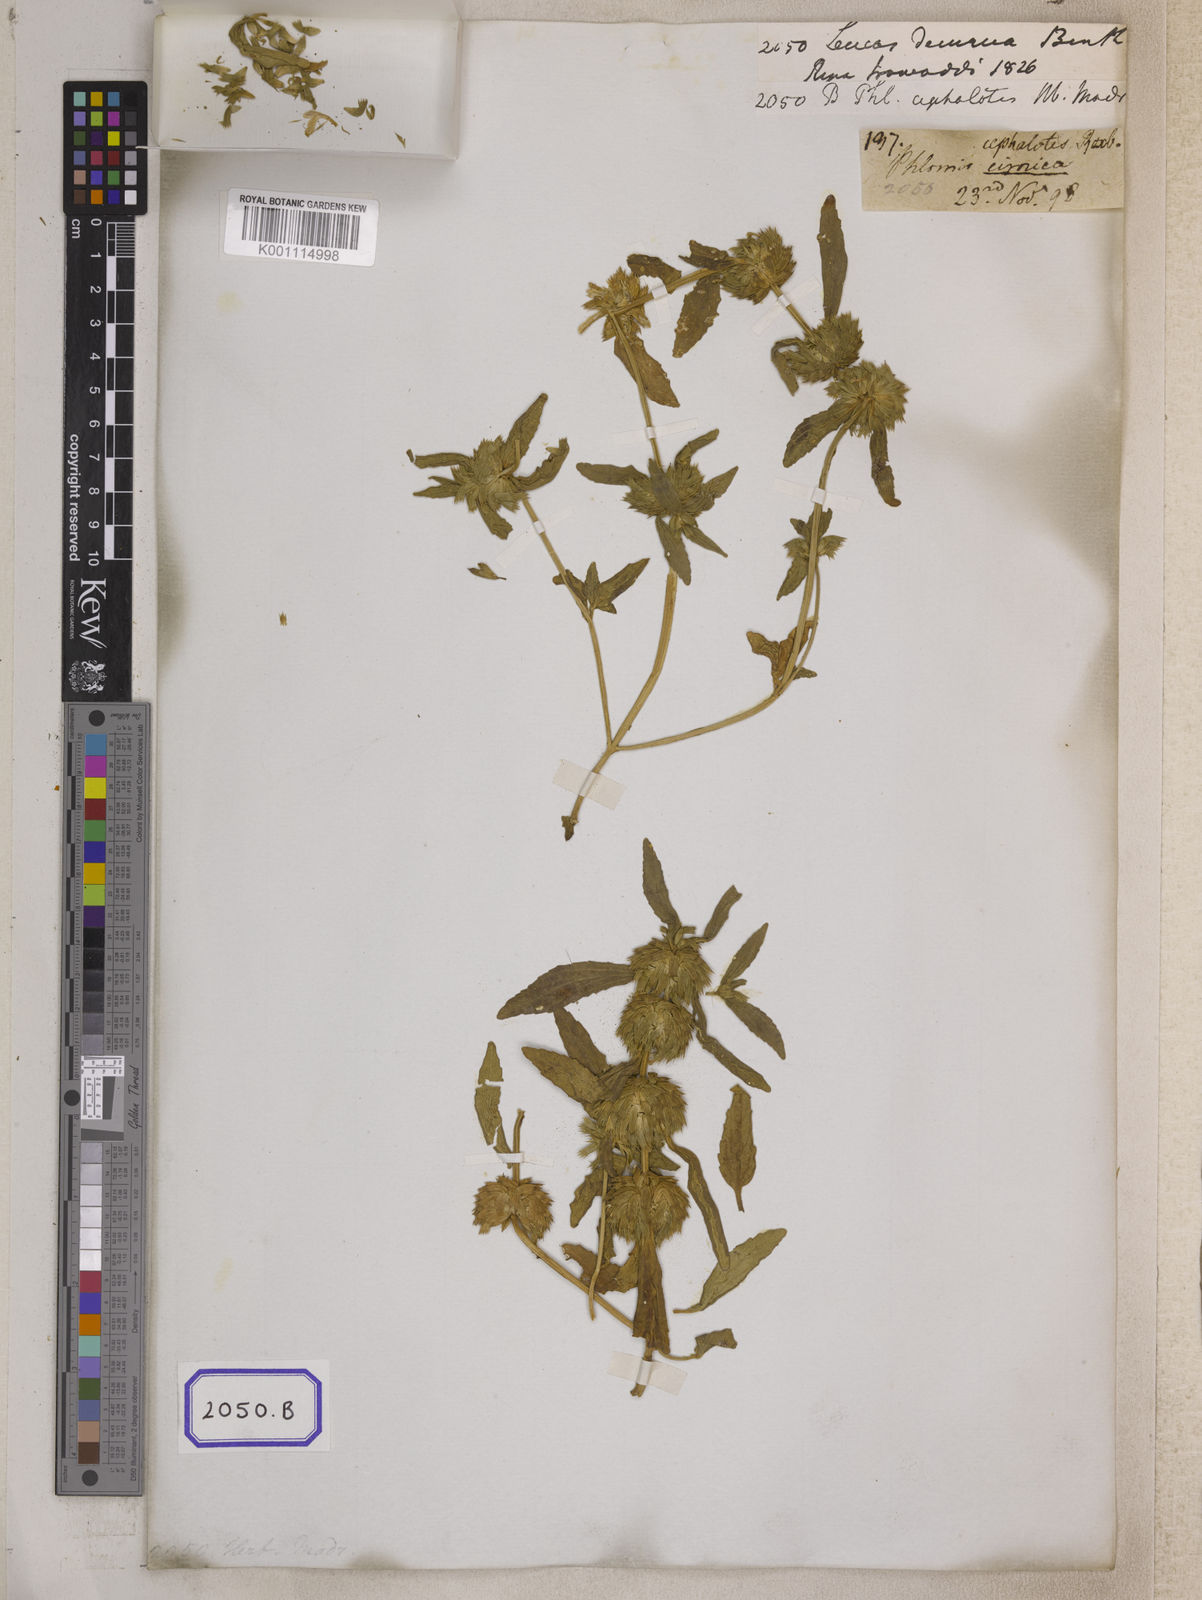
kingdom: Plantae
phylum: Tracheophyta
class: Magnoliopsida
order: Lamiales
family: Lamiaceae
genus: Leucas
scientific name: Leucas nutans
